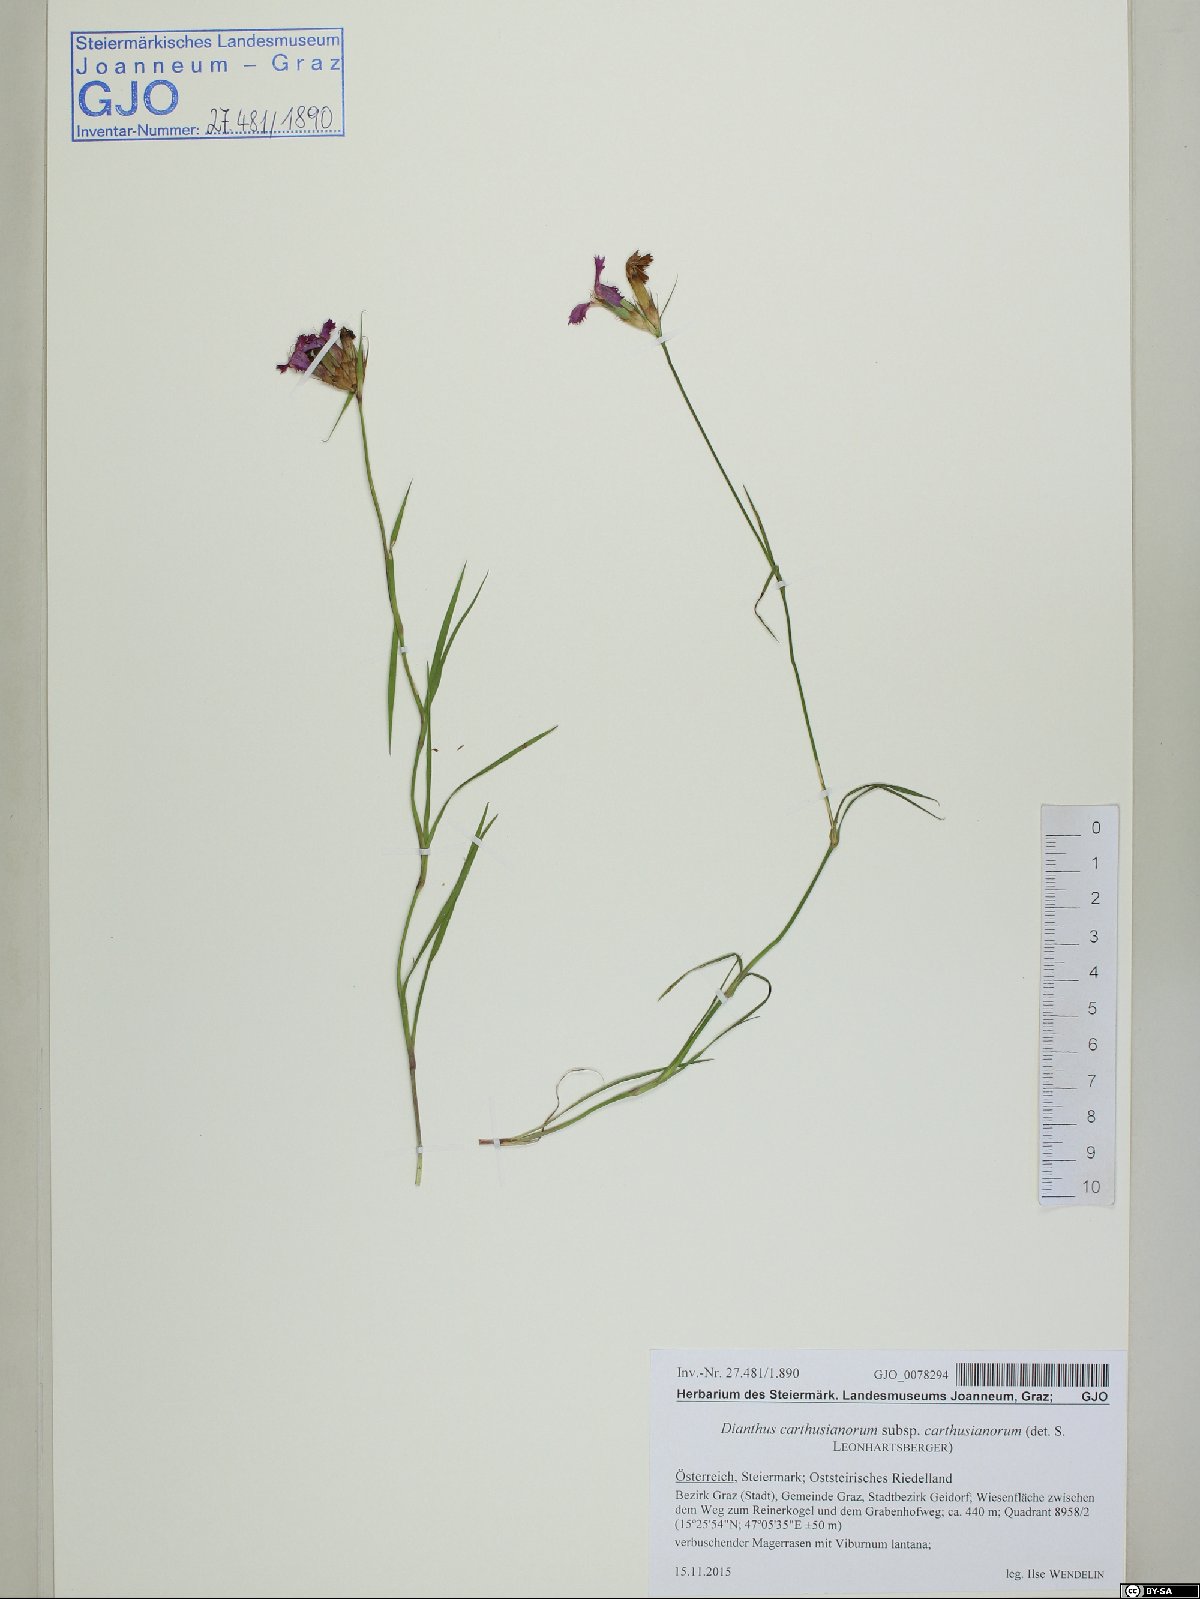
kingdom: Plantae
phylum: Tracheophyta
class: Magnoliopsida
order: Caryophyllales
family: Caryophyllaceae
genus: Dianthus
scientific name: Dianthus carthusianorum
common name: Carthusian pink
